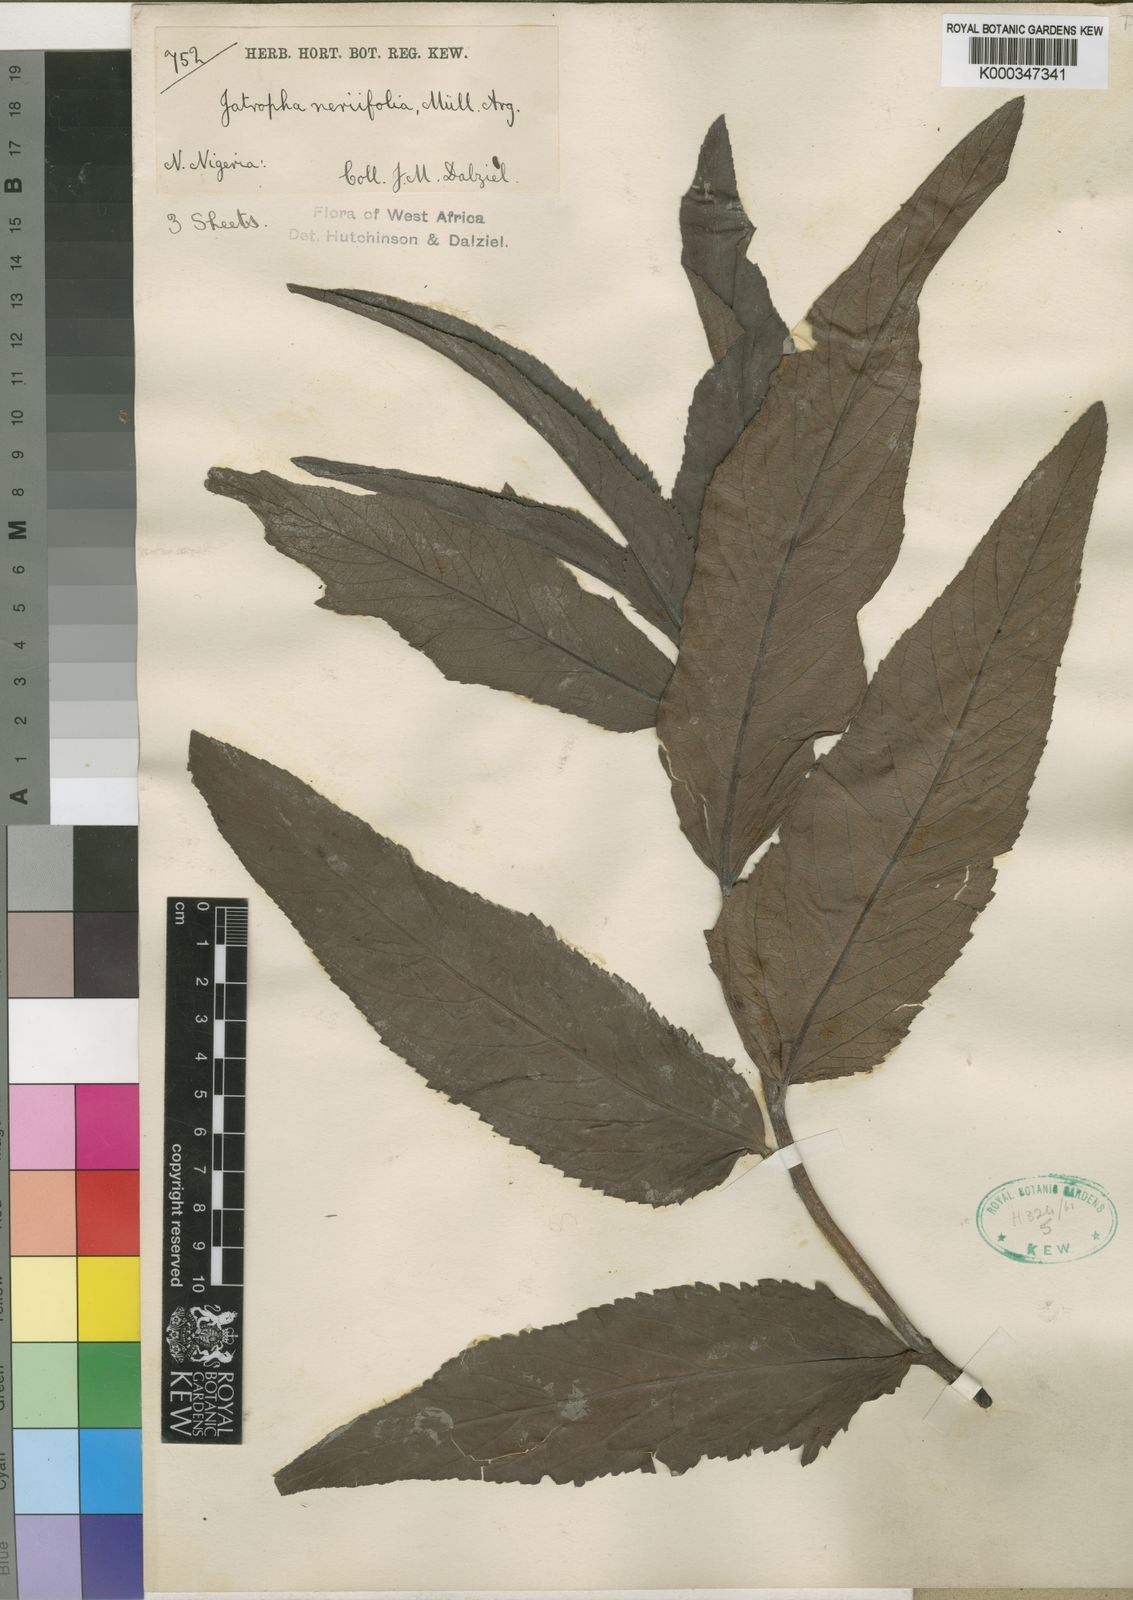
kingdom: Plantae
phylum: Tracheophyta
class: Magnoliopsida
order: Malpighiales
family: Euphorbiaceae
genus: Jatropha
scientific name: Jatropha
